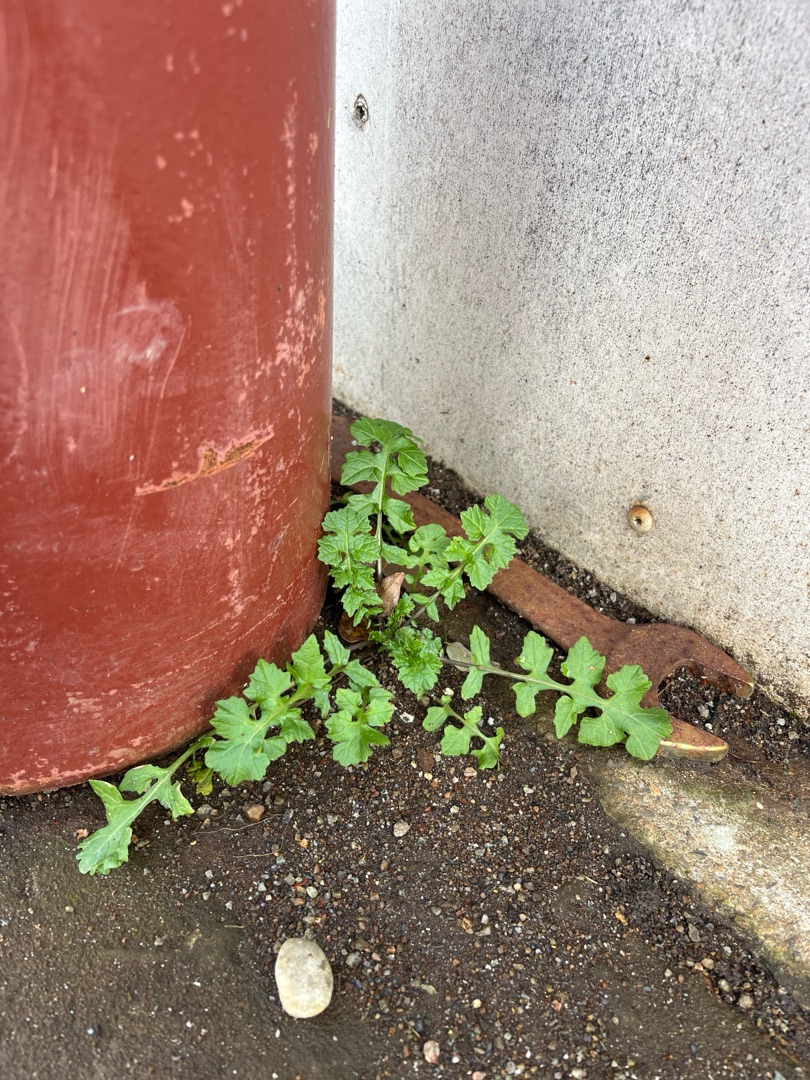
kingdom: Plantae
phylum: Tracheophyta
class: Magnoliopsida
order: Brassicales
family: Brassicaceae
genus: Sisymbrium
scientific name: Sisymbrium officinale
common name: Rank vejsennep
